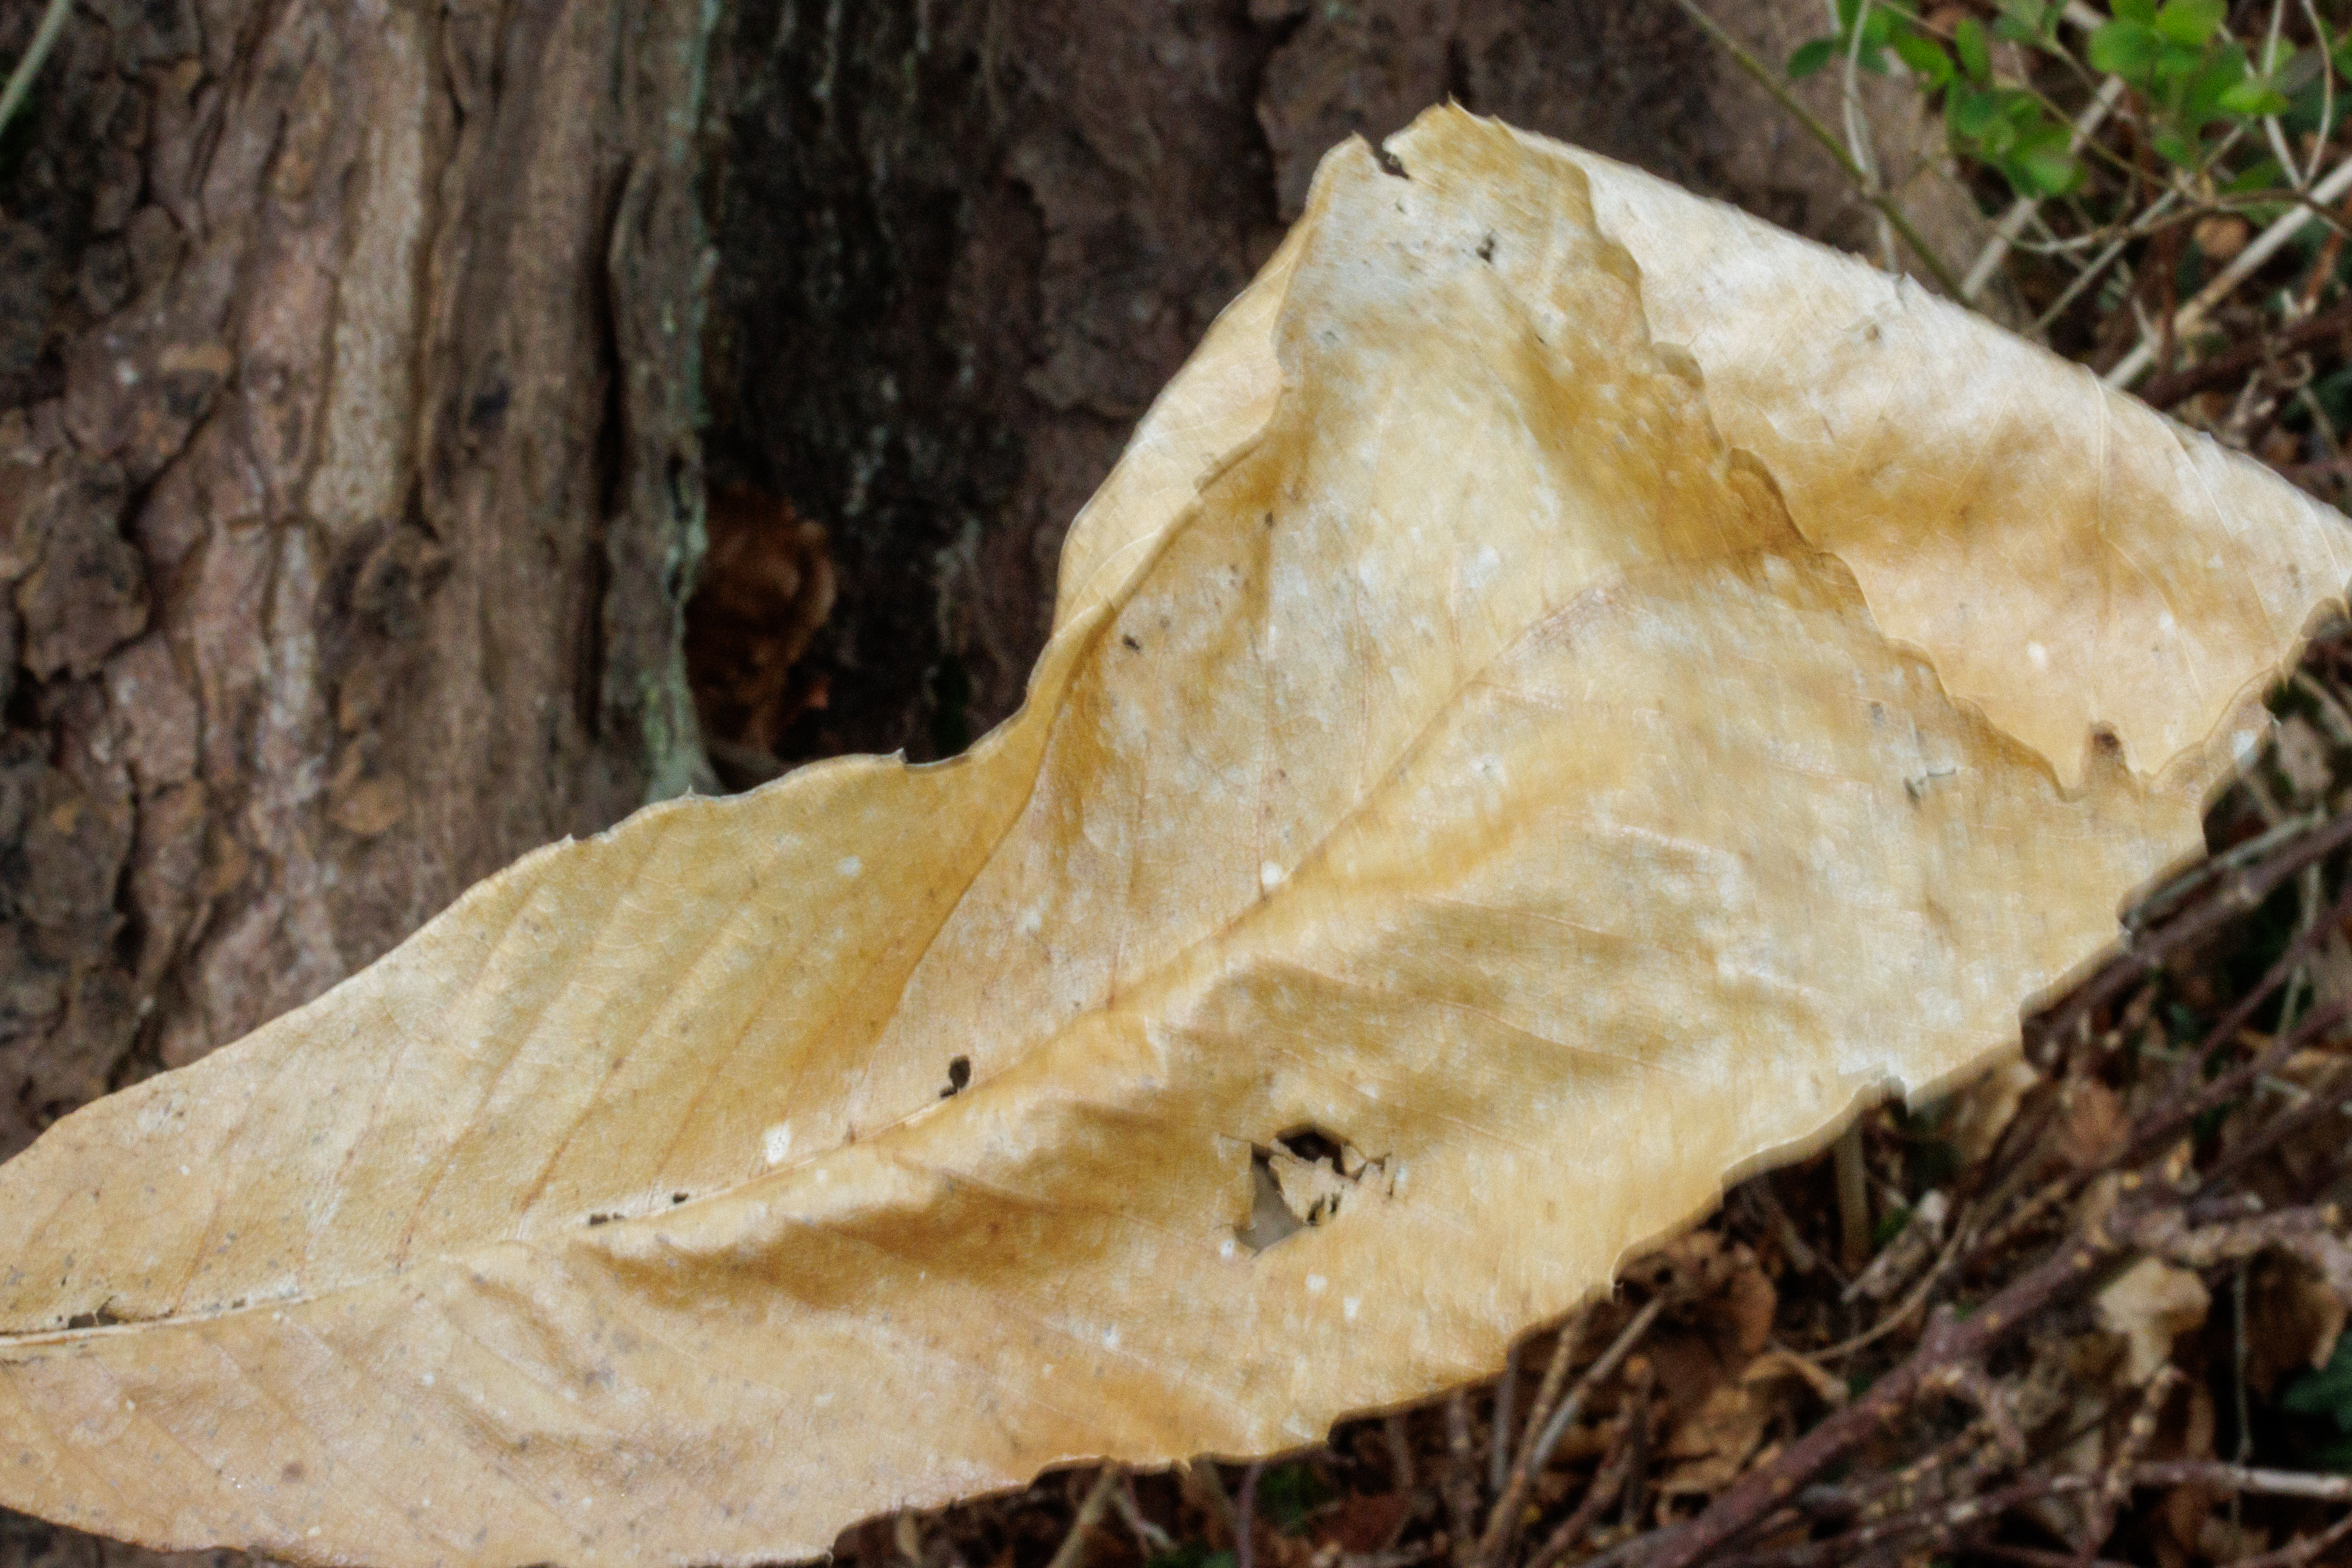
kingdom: Plantae
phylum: Tracheophyta
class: Magnoliopsida
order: Fagales
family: Fagaceae
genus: Castanea
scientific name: Castanea sativa
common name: Ægte kastanie
